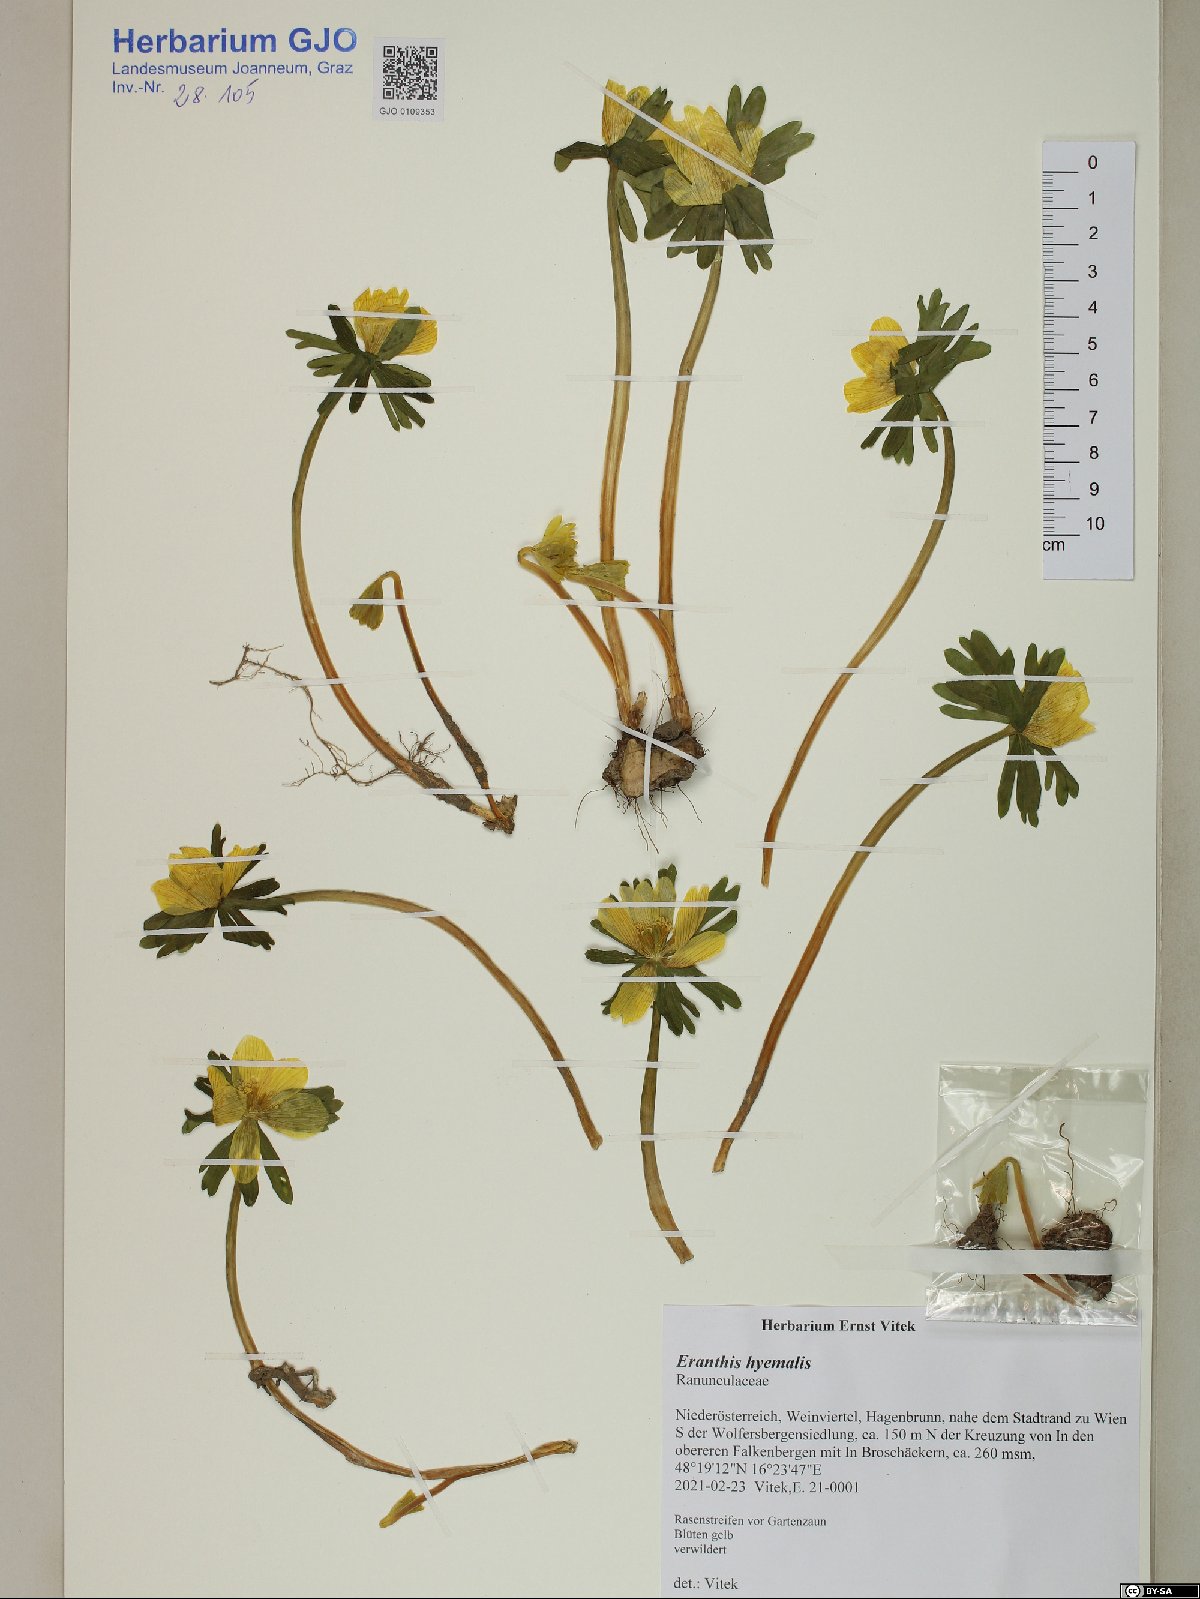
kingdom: Plantae
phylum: Tracheophyta
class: Magnoliopsida
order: Ranunculales
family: Ranunculaceae
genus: Eranthis
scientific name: Eranthis hyemalis
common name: Winter aconite
